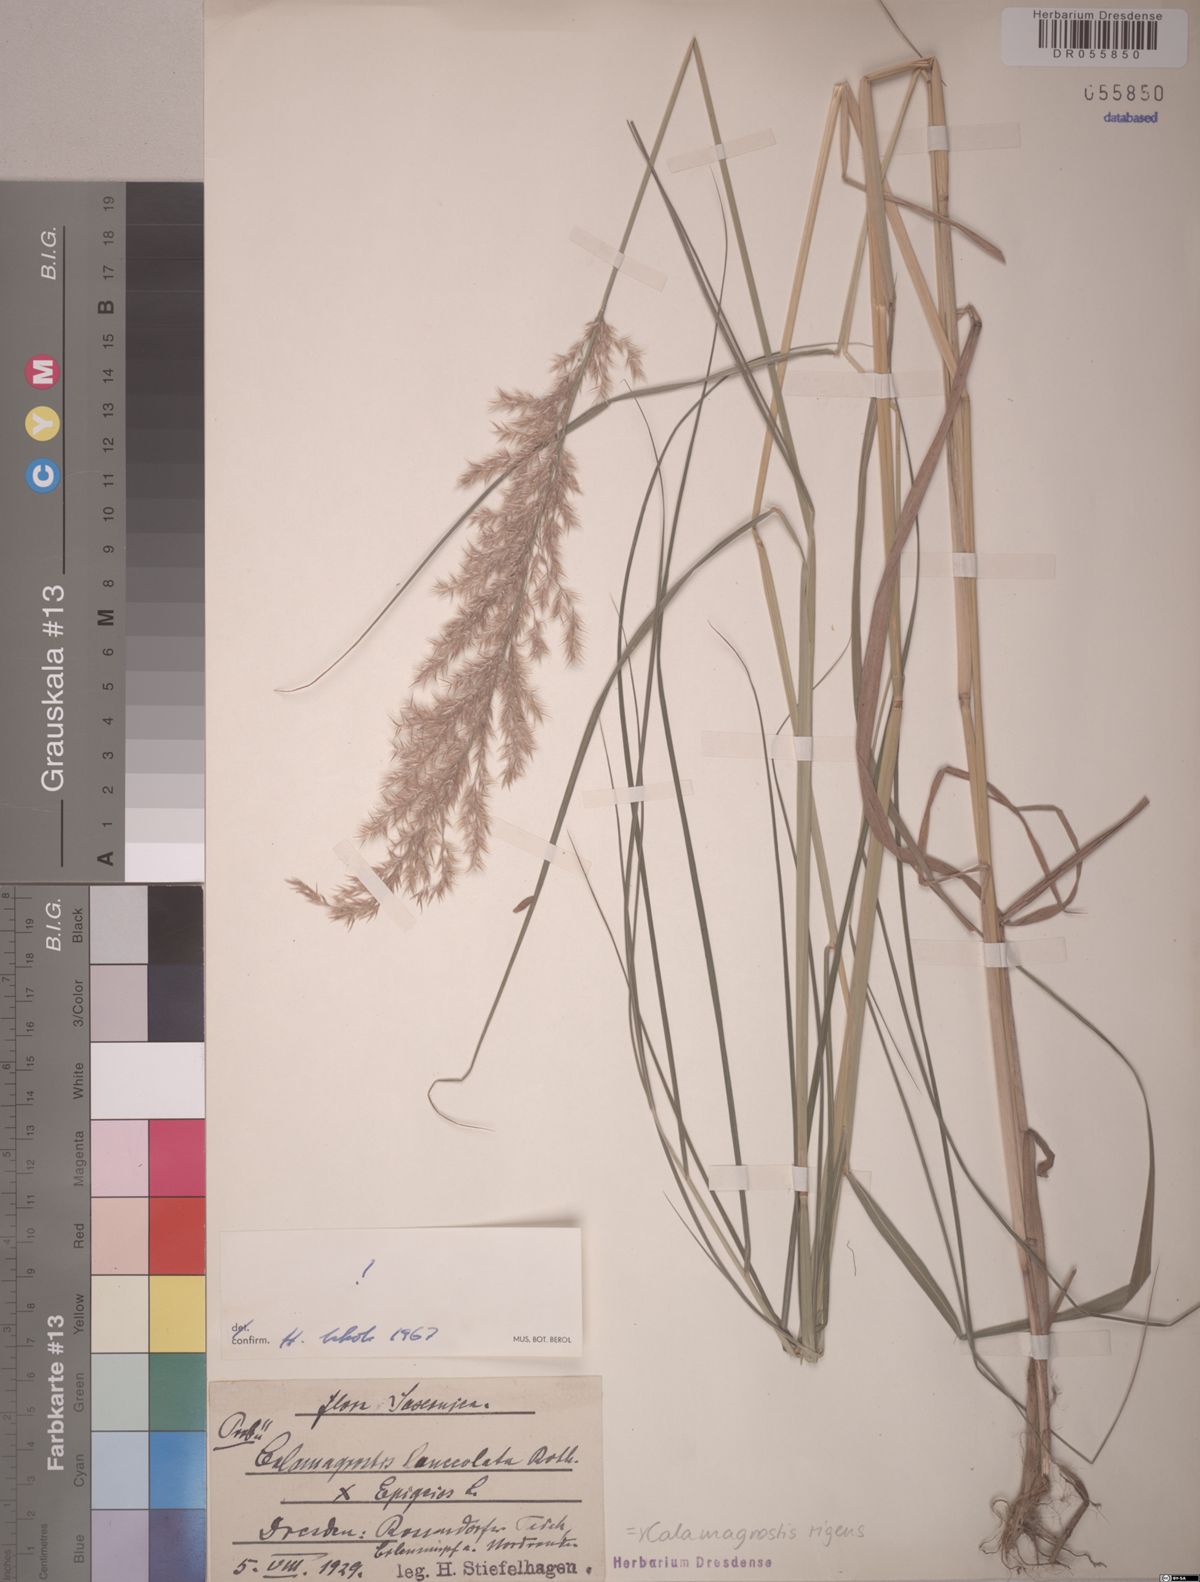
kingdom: Plantae
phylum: Tracheophyta
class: Liliopsida
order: Poales
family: Poaceae
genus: Calamagrostis
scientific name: Calamagrostis rigens
